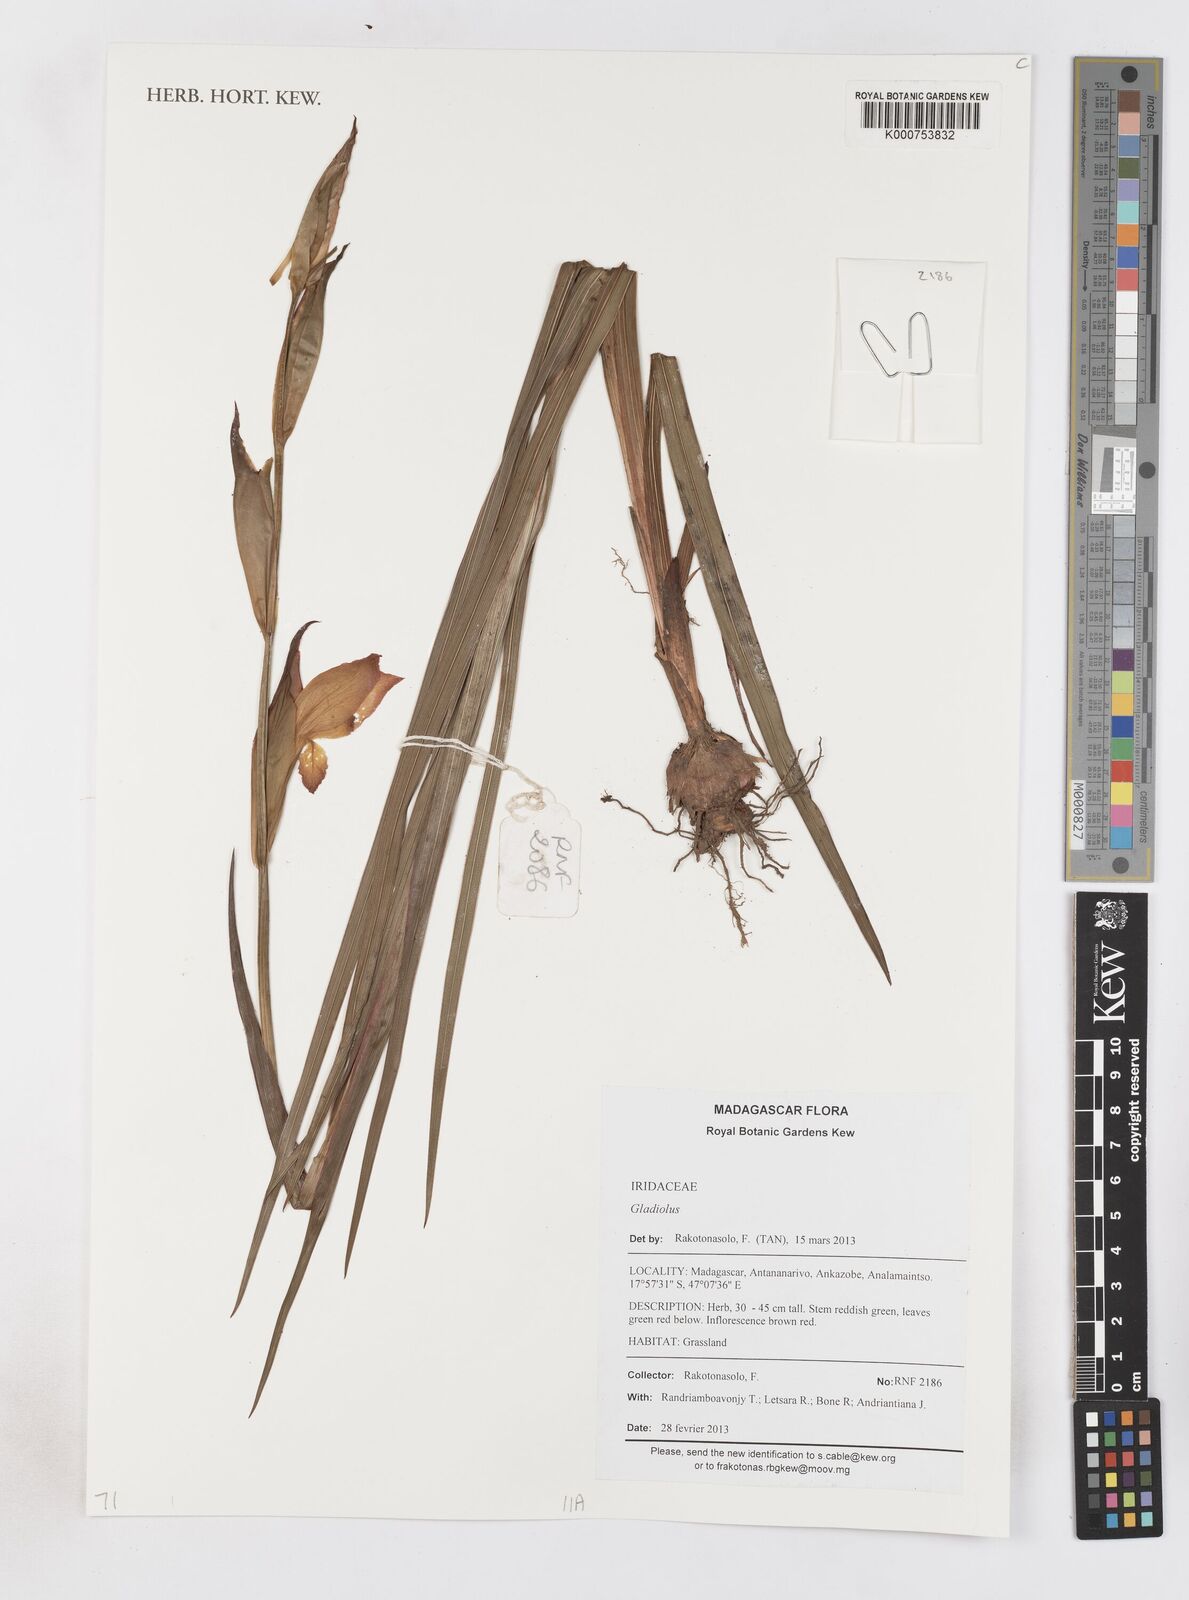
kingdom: Plantae
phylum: Tracheophyta
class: Liliopsida
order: Asparagales
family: Iridaceae
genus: Gladiolus
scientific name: Gladiolus
